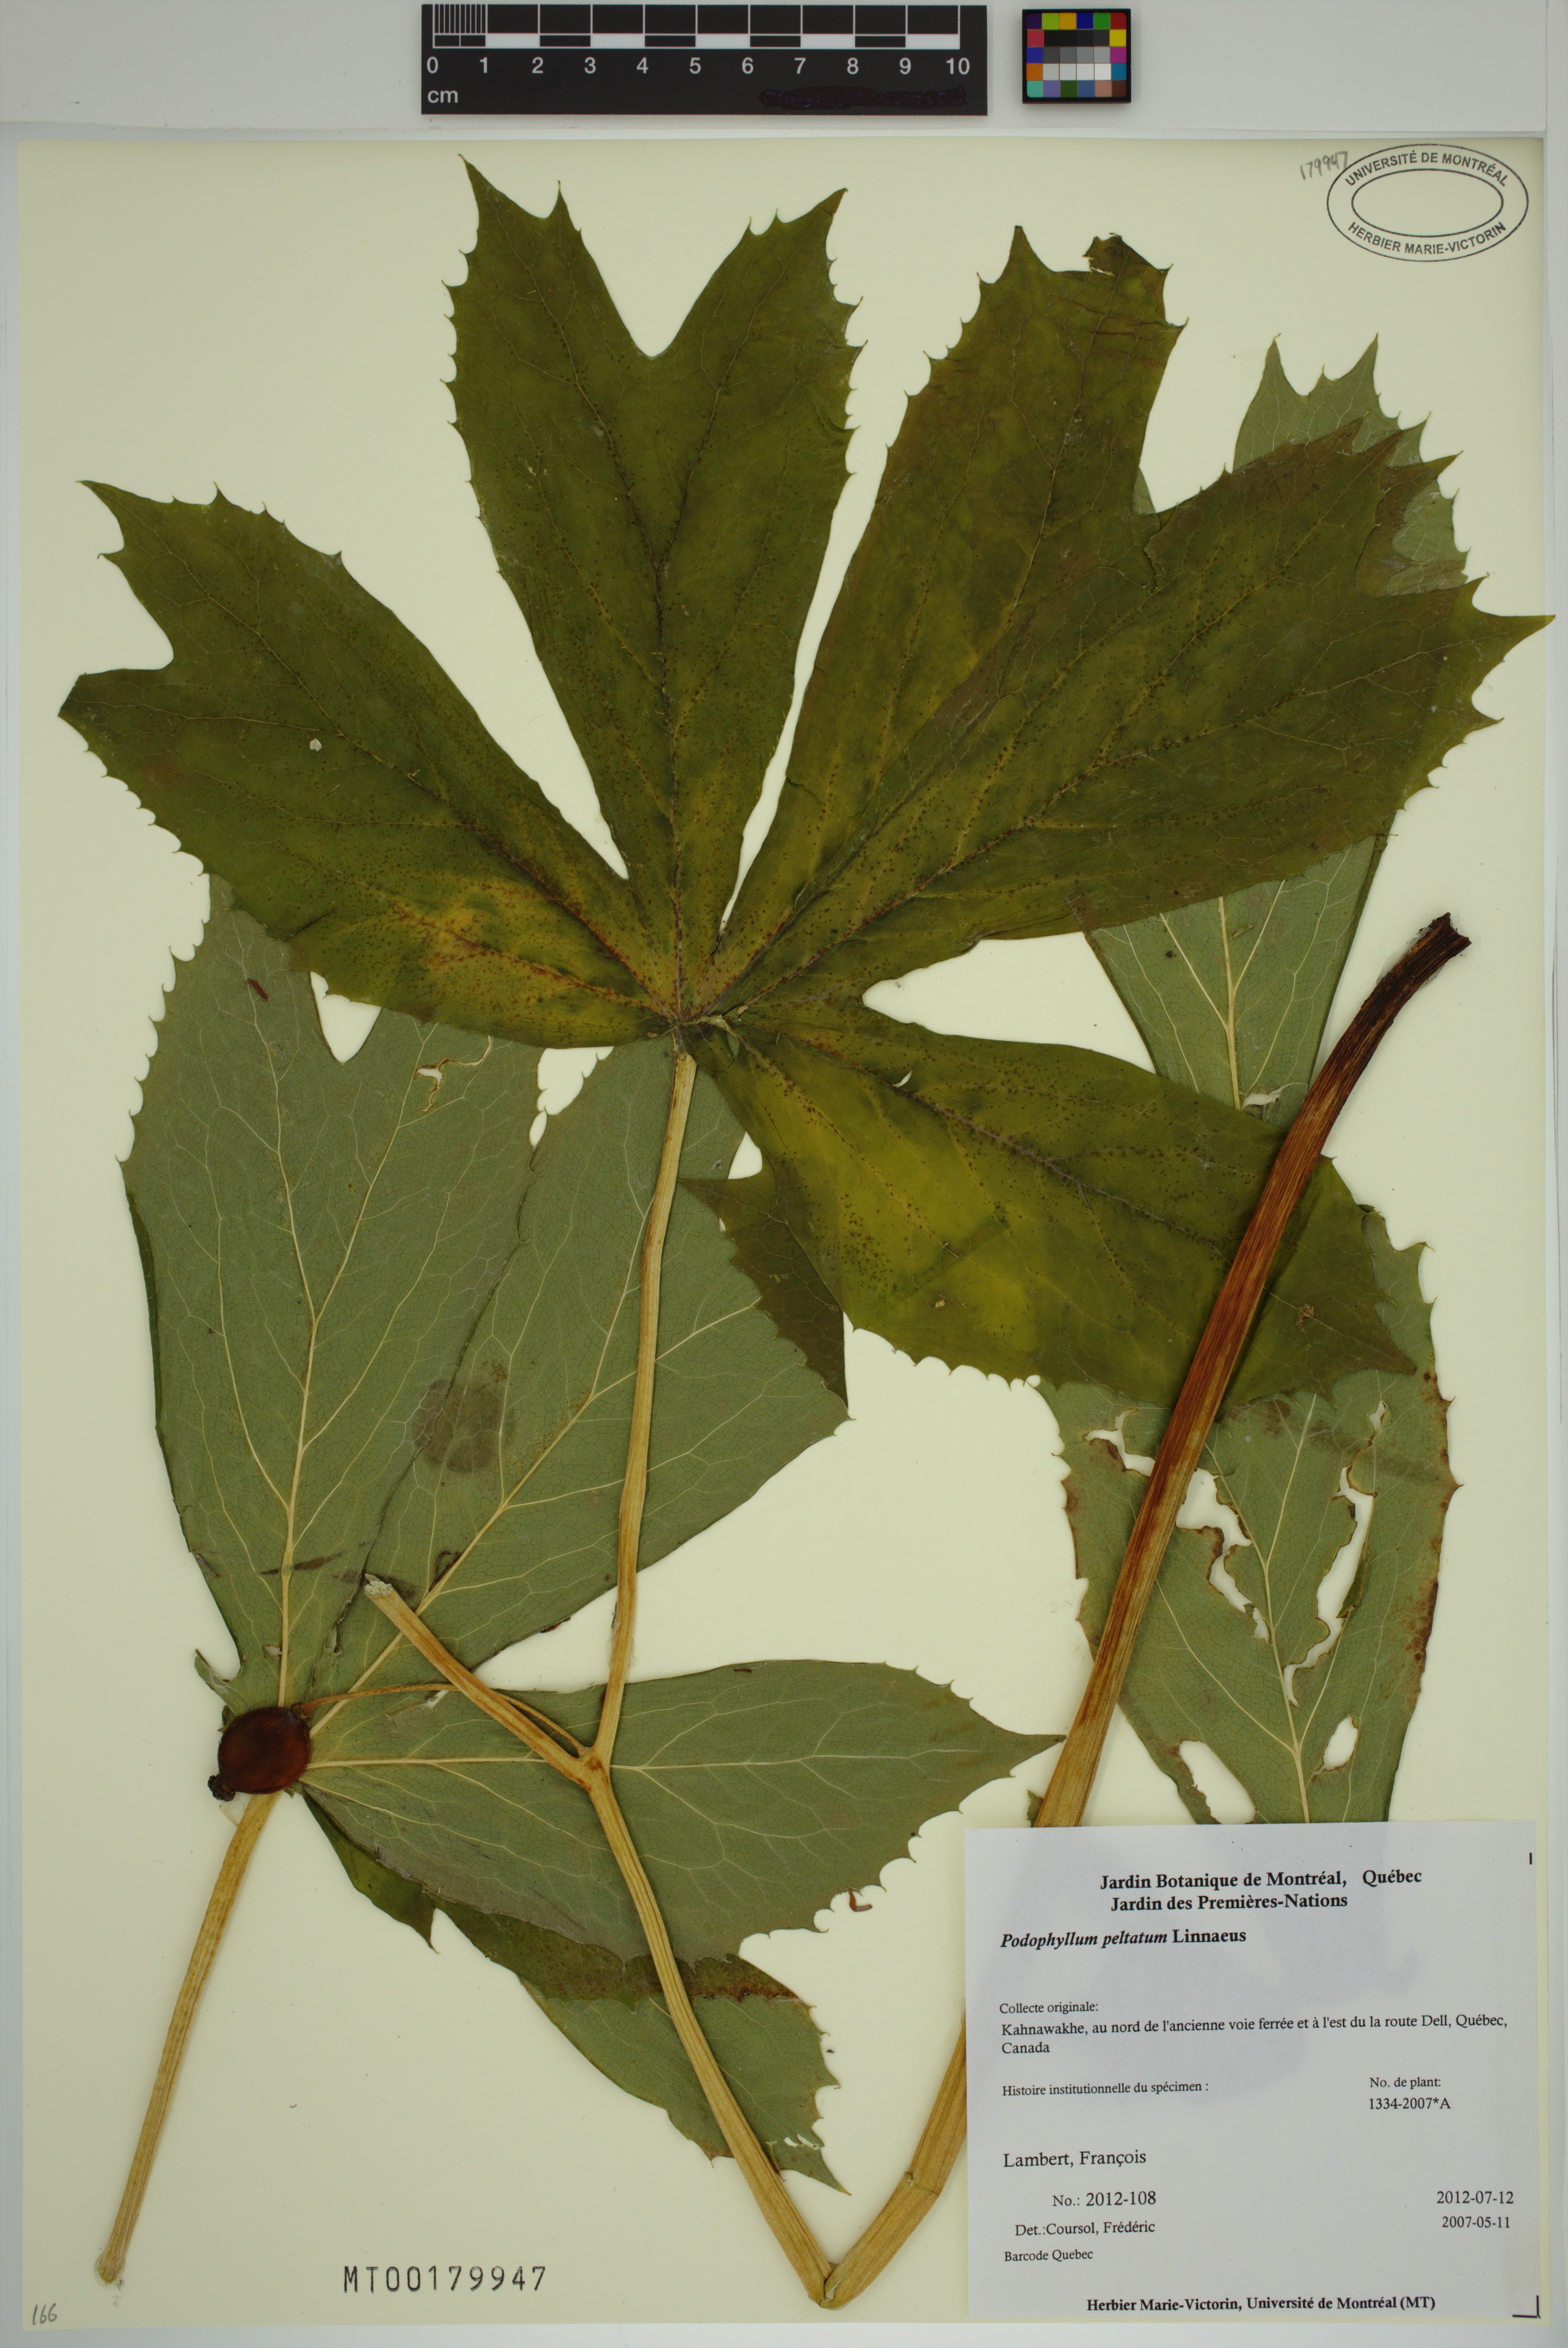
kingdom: Plantae
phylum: Tracheophyta
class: Magnoliopsida
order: Ranunculales
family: Berberidaceae
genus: Podophyllum
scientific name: Podophyllum peltatum
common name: Wild mandrake
